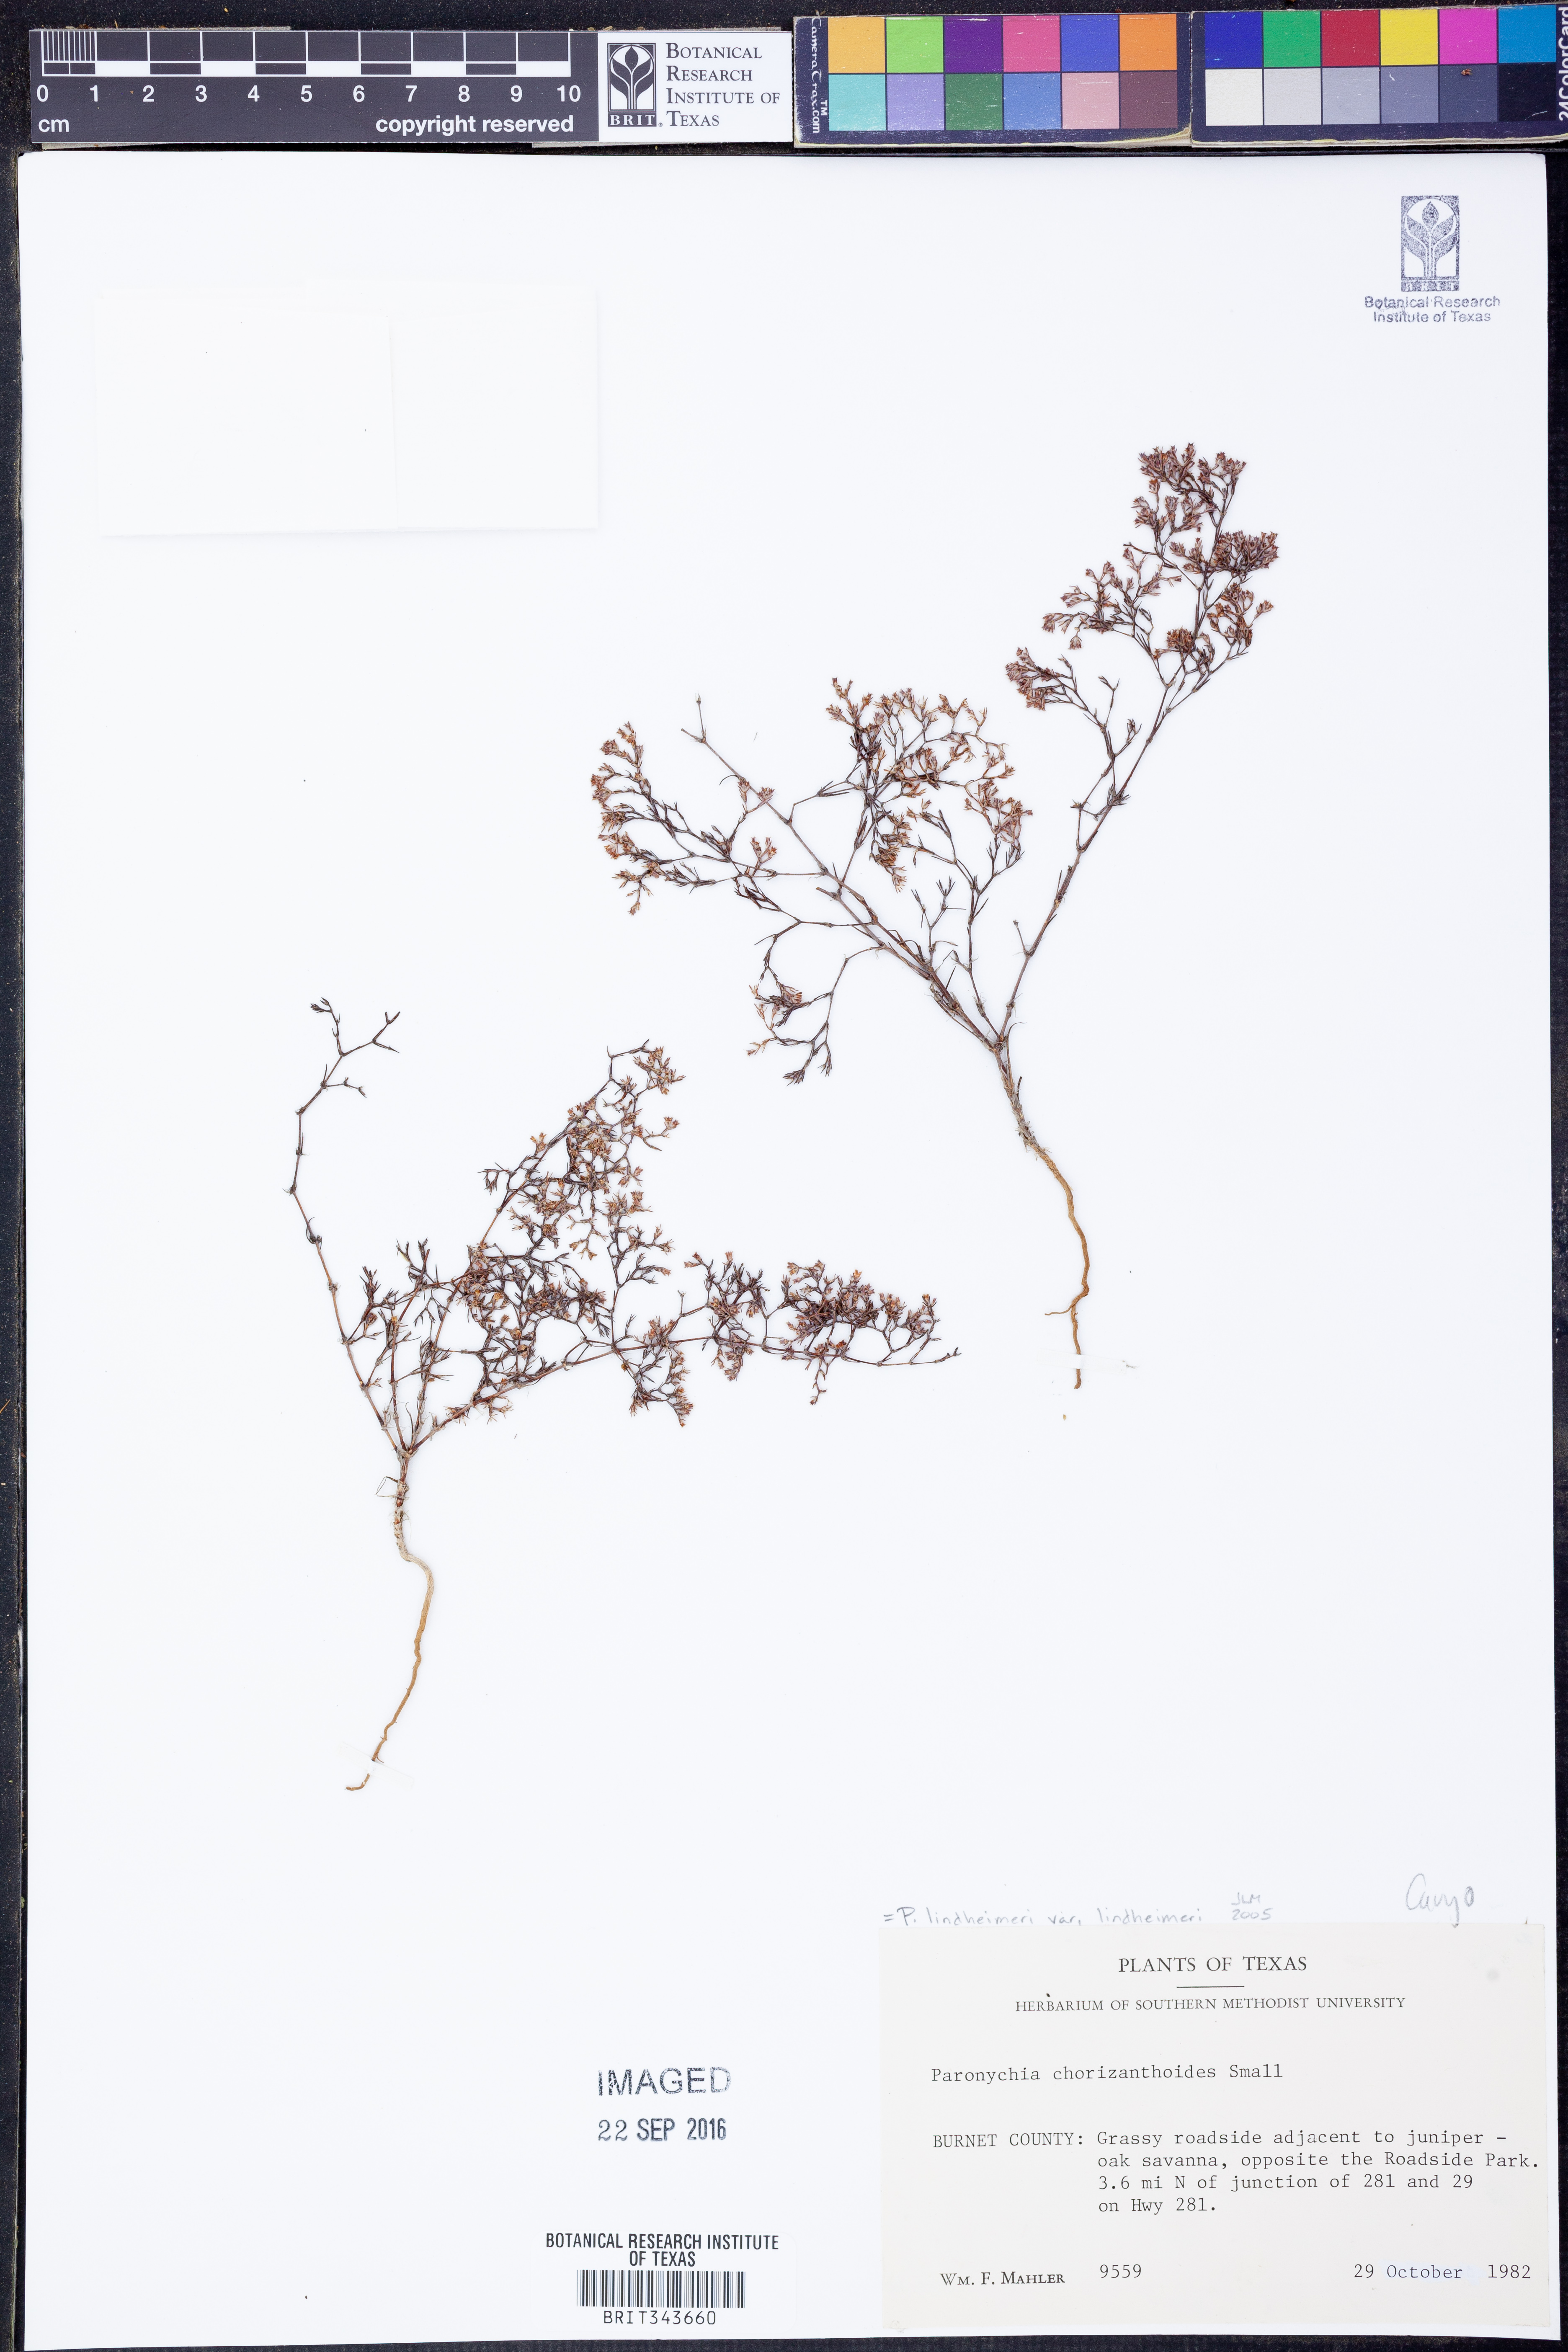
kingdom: Plantae
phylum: Tracheophyta
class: Magnoliopsida
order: Caryophyllales
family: Caryophyllaceae
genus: Paronychia
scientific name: Paronychia lindheimeri
